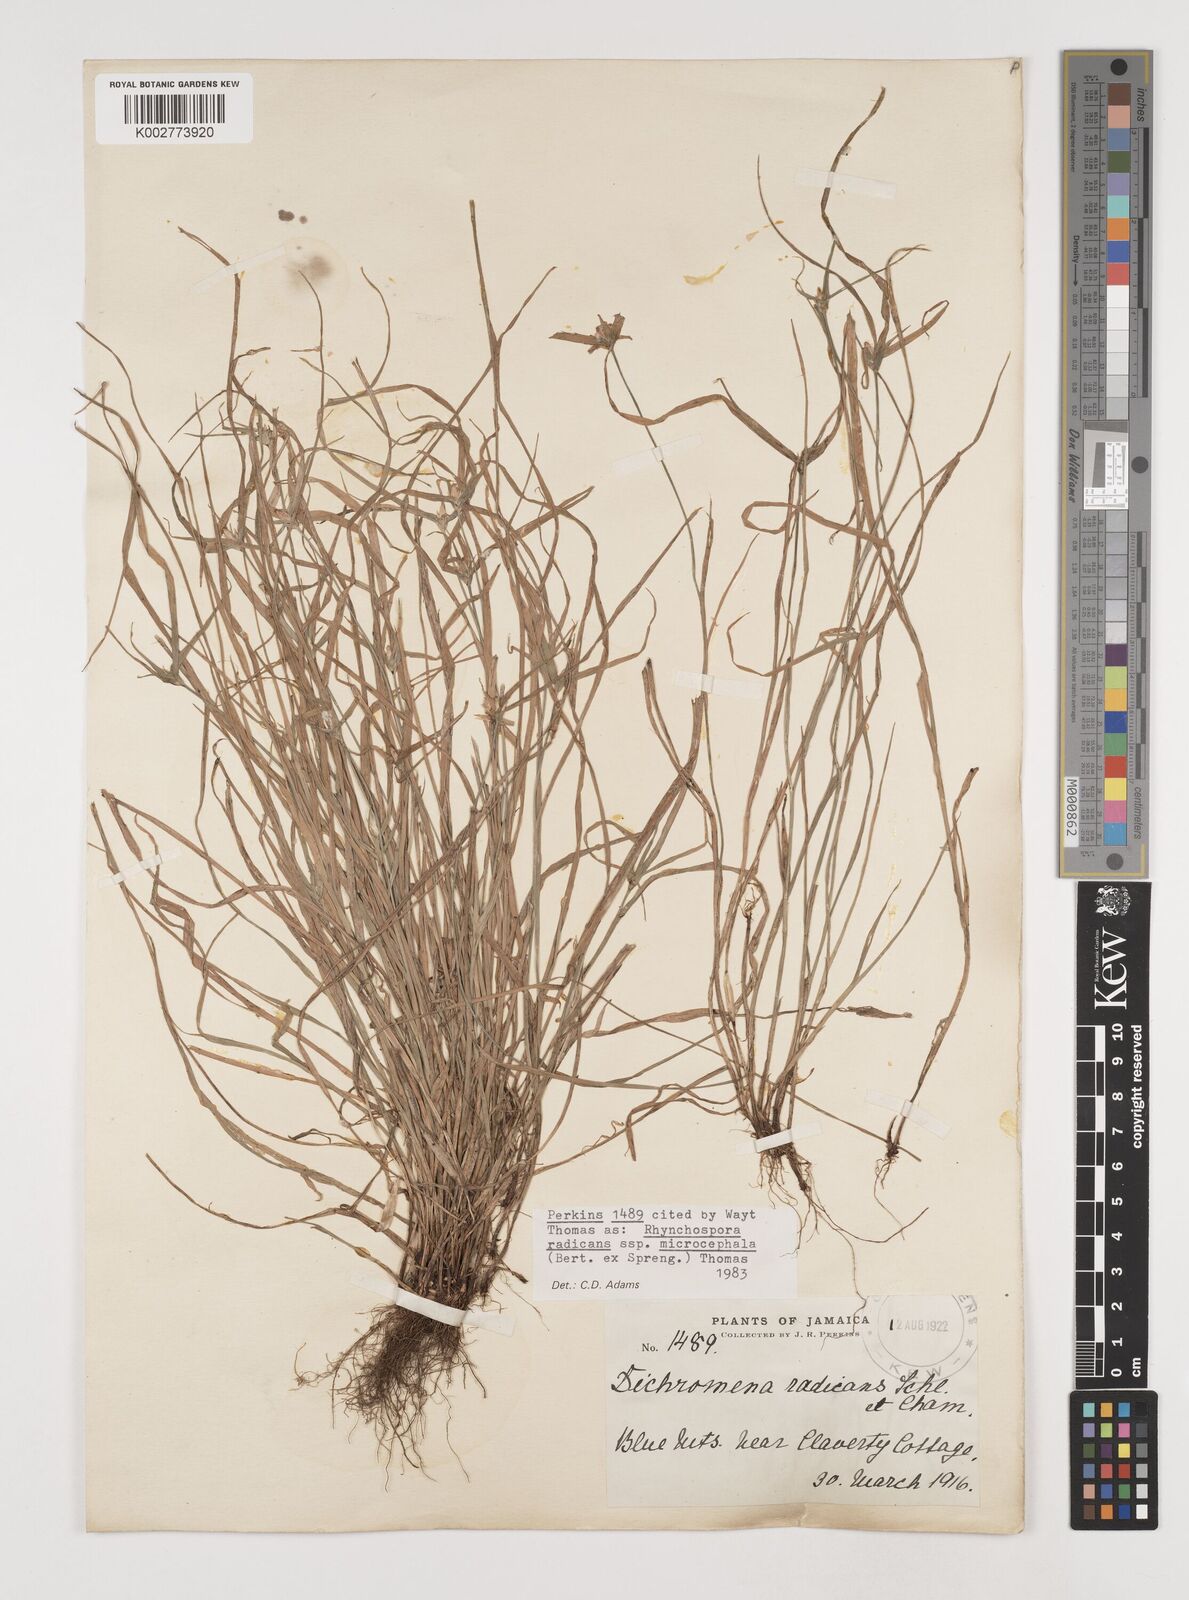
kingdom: Plantae
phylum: Tracheophyta
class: Liliopsida
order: Poales
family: Cyperaceae
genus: Rhynchospora
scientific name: Rhynchospora radicans
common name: Tropical whitetop
